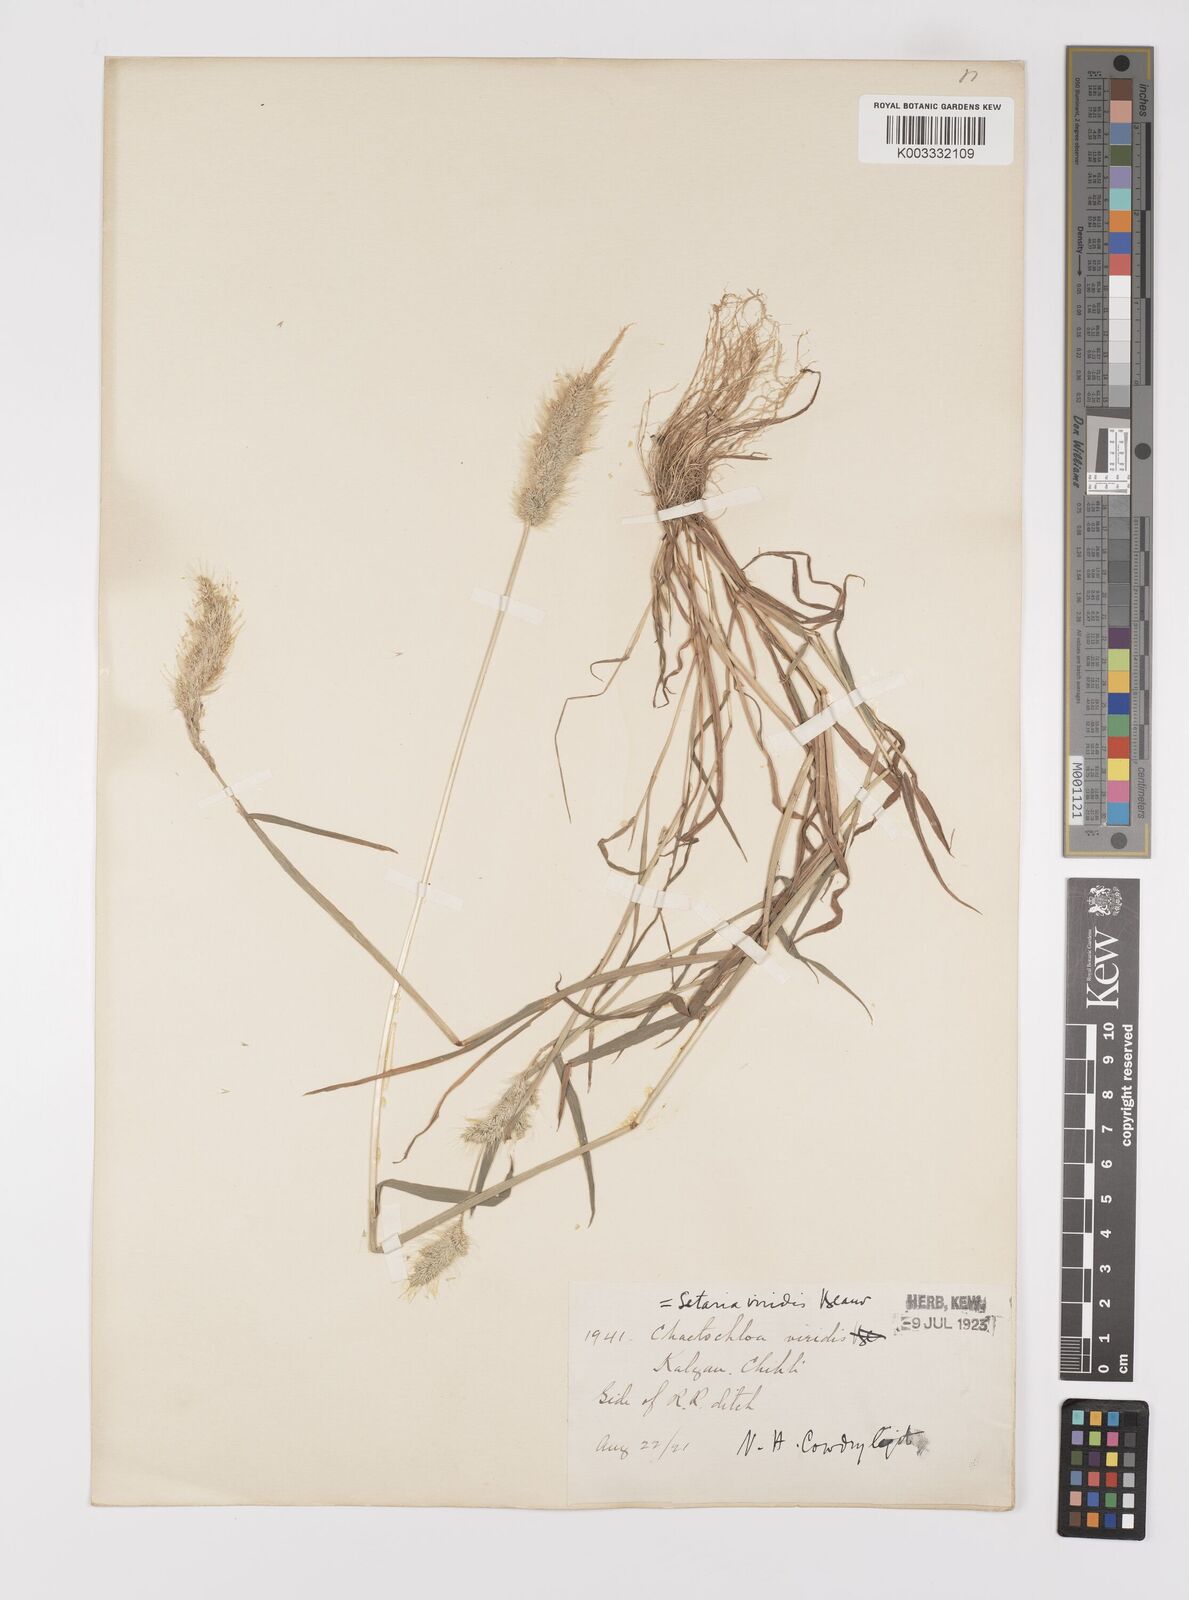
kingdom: Plantae
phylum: Tracheophyta
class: Liliopsida
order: Poales
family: Poaceae
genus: Polypogon
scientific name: Polypogon monspeliensis
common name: Annual rabbitsfoot grass
